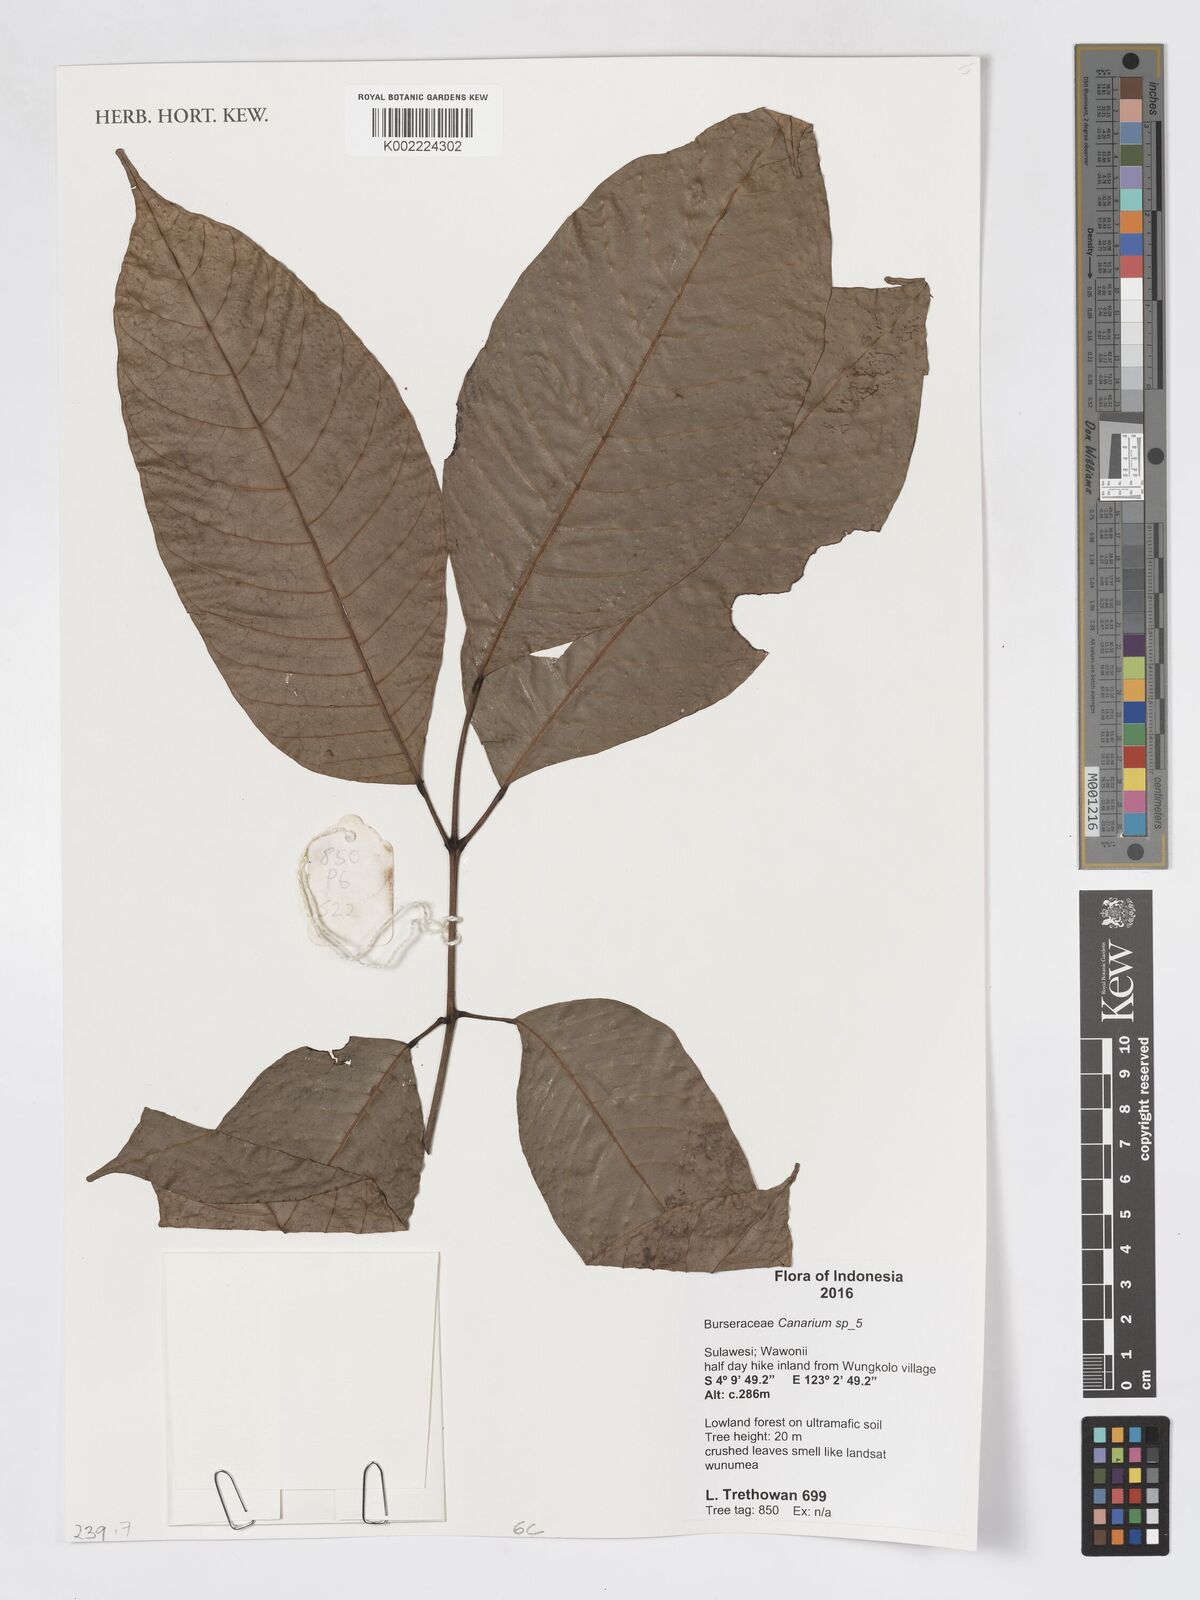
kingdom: Plantae
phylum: Tracheophyta
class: Magnoliopsida
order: Sapindales
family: Burseraceae
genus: Canarium
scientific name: Canarium
